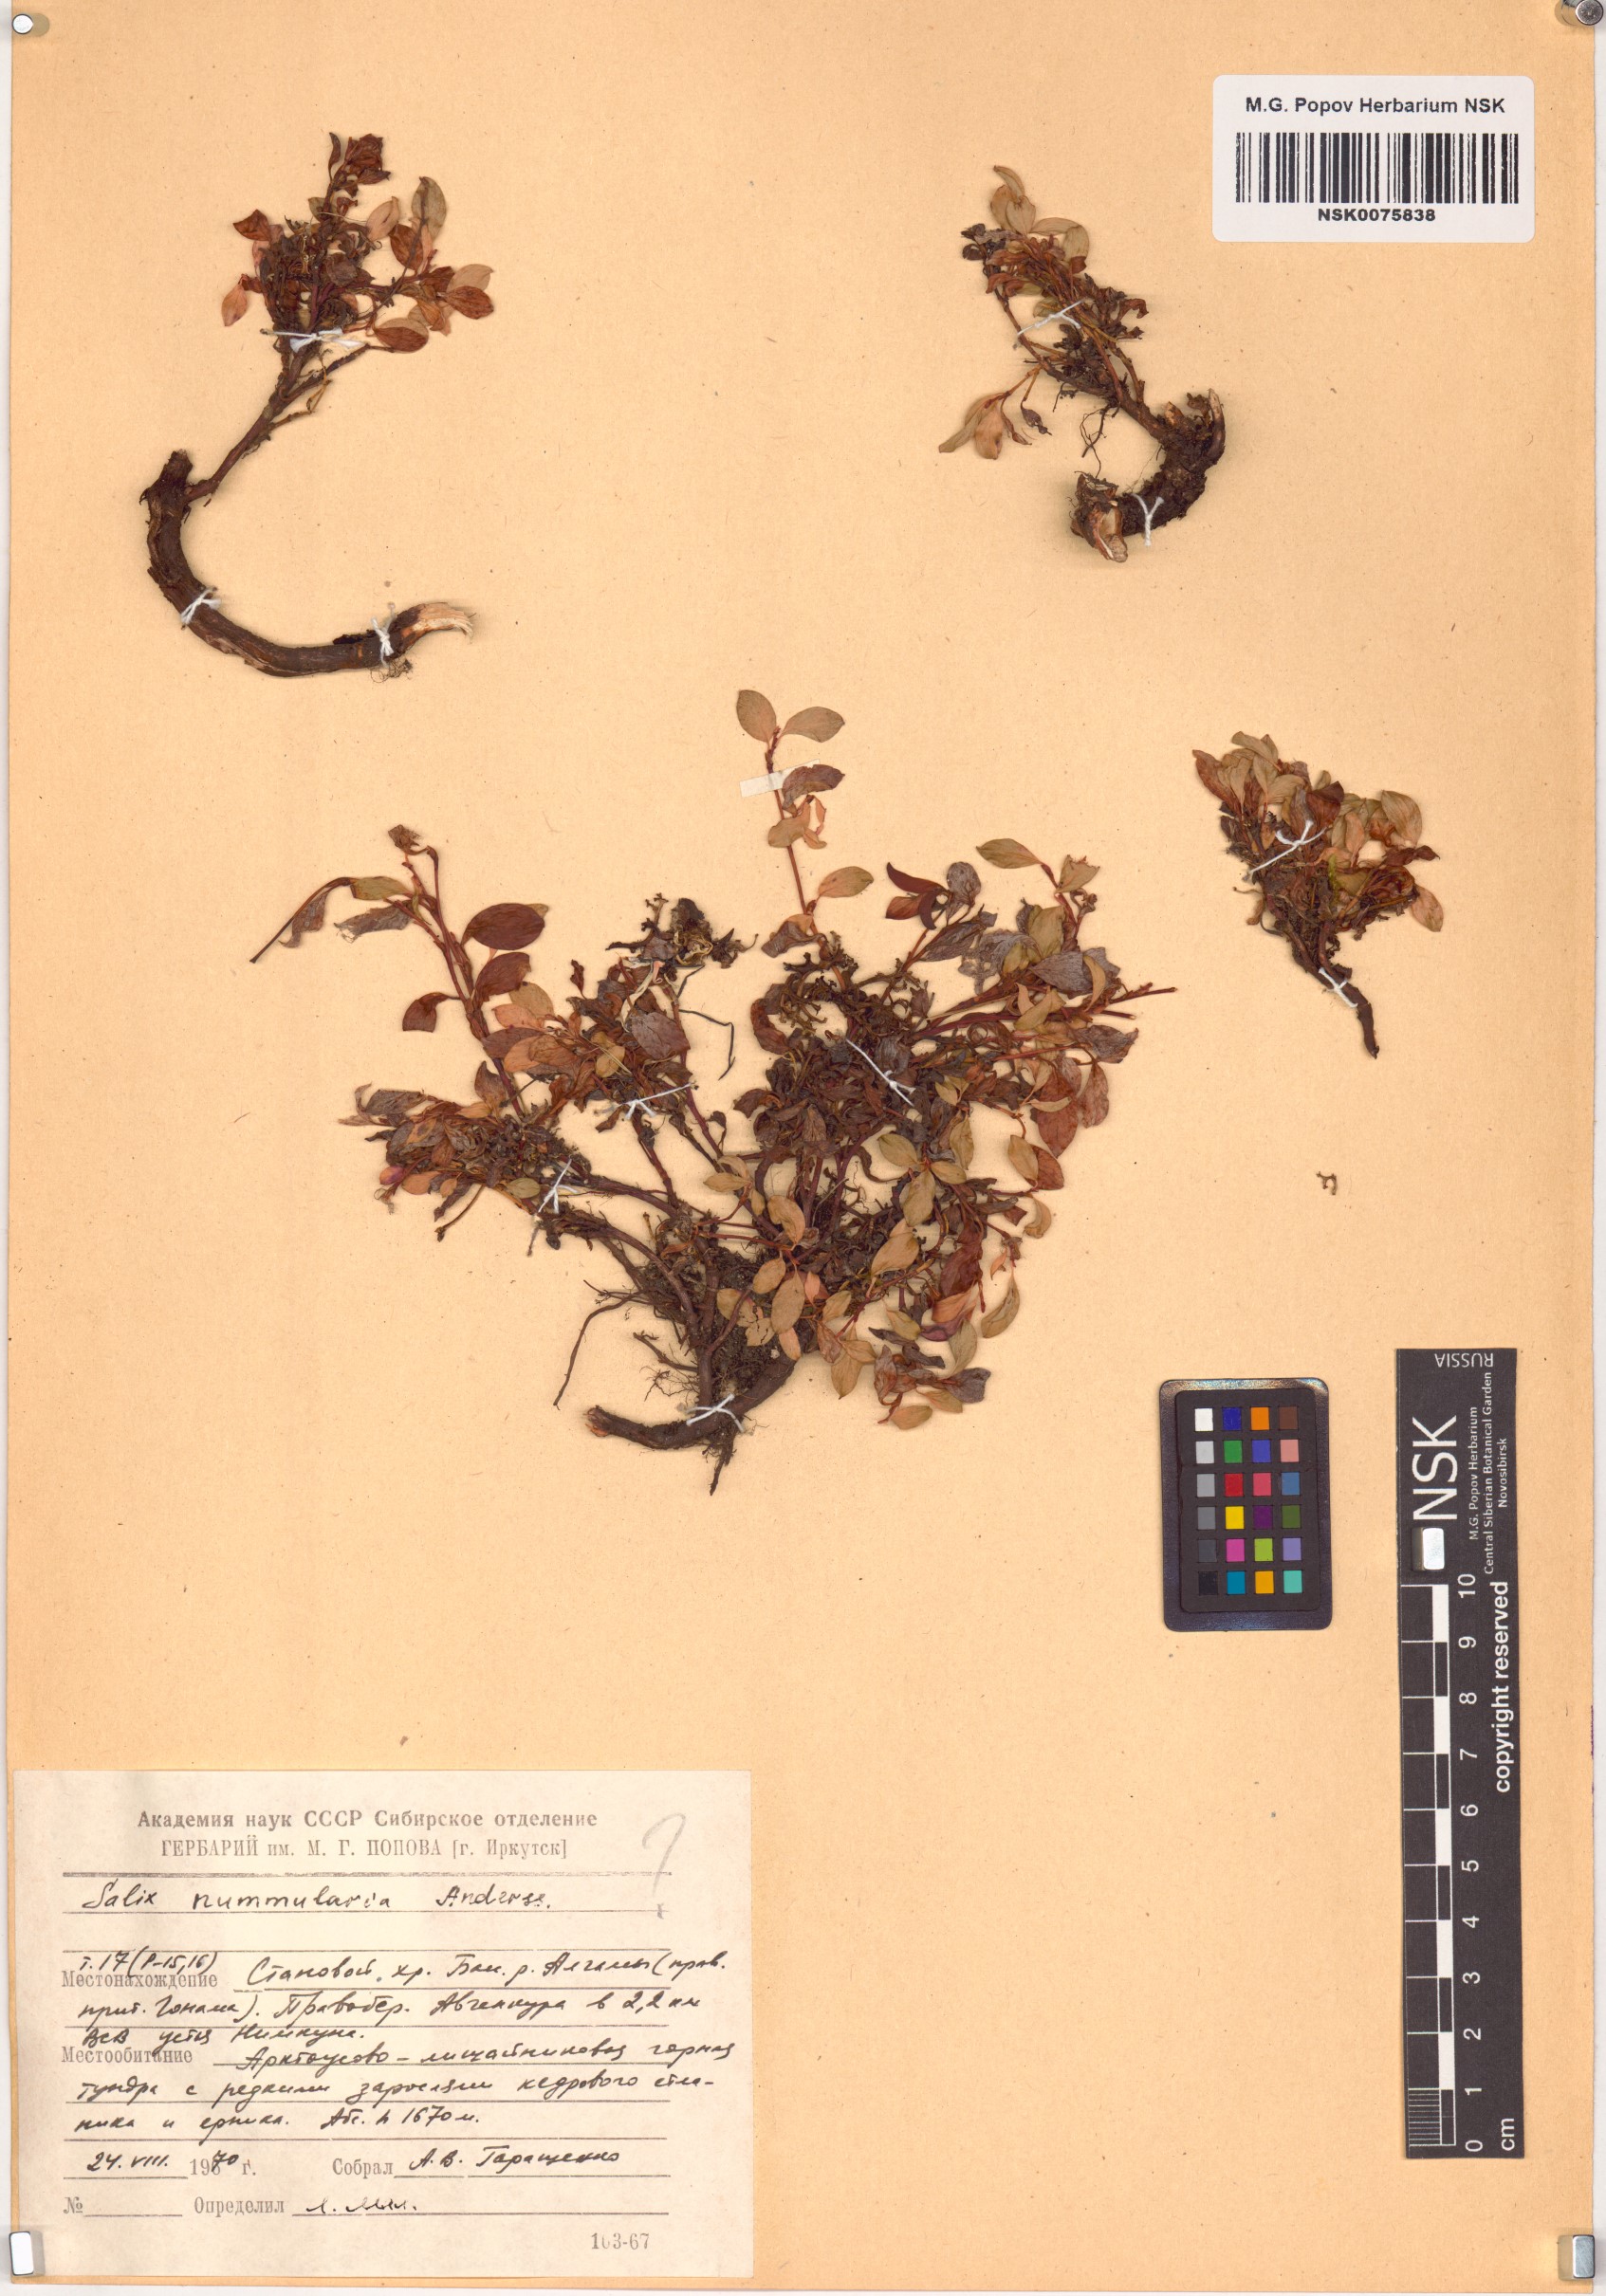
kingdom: Plantae
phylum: Tracheophyta
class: Magnoliopsida
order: Malpighiales
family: Salicaceae
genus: Salix
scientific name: Salix nummularia
